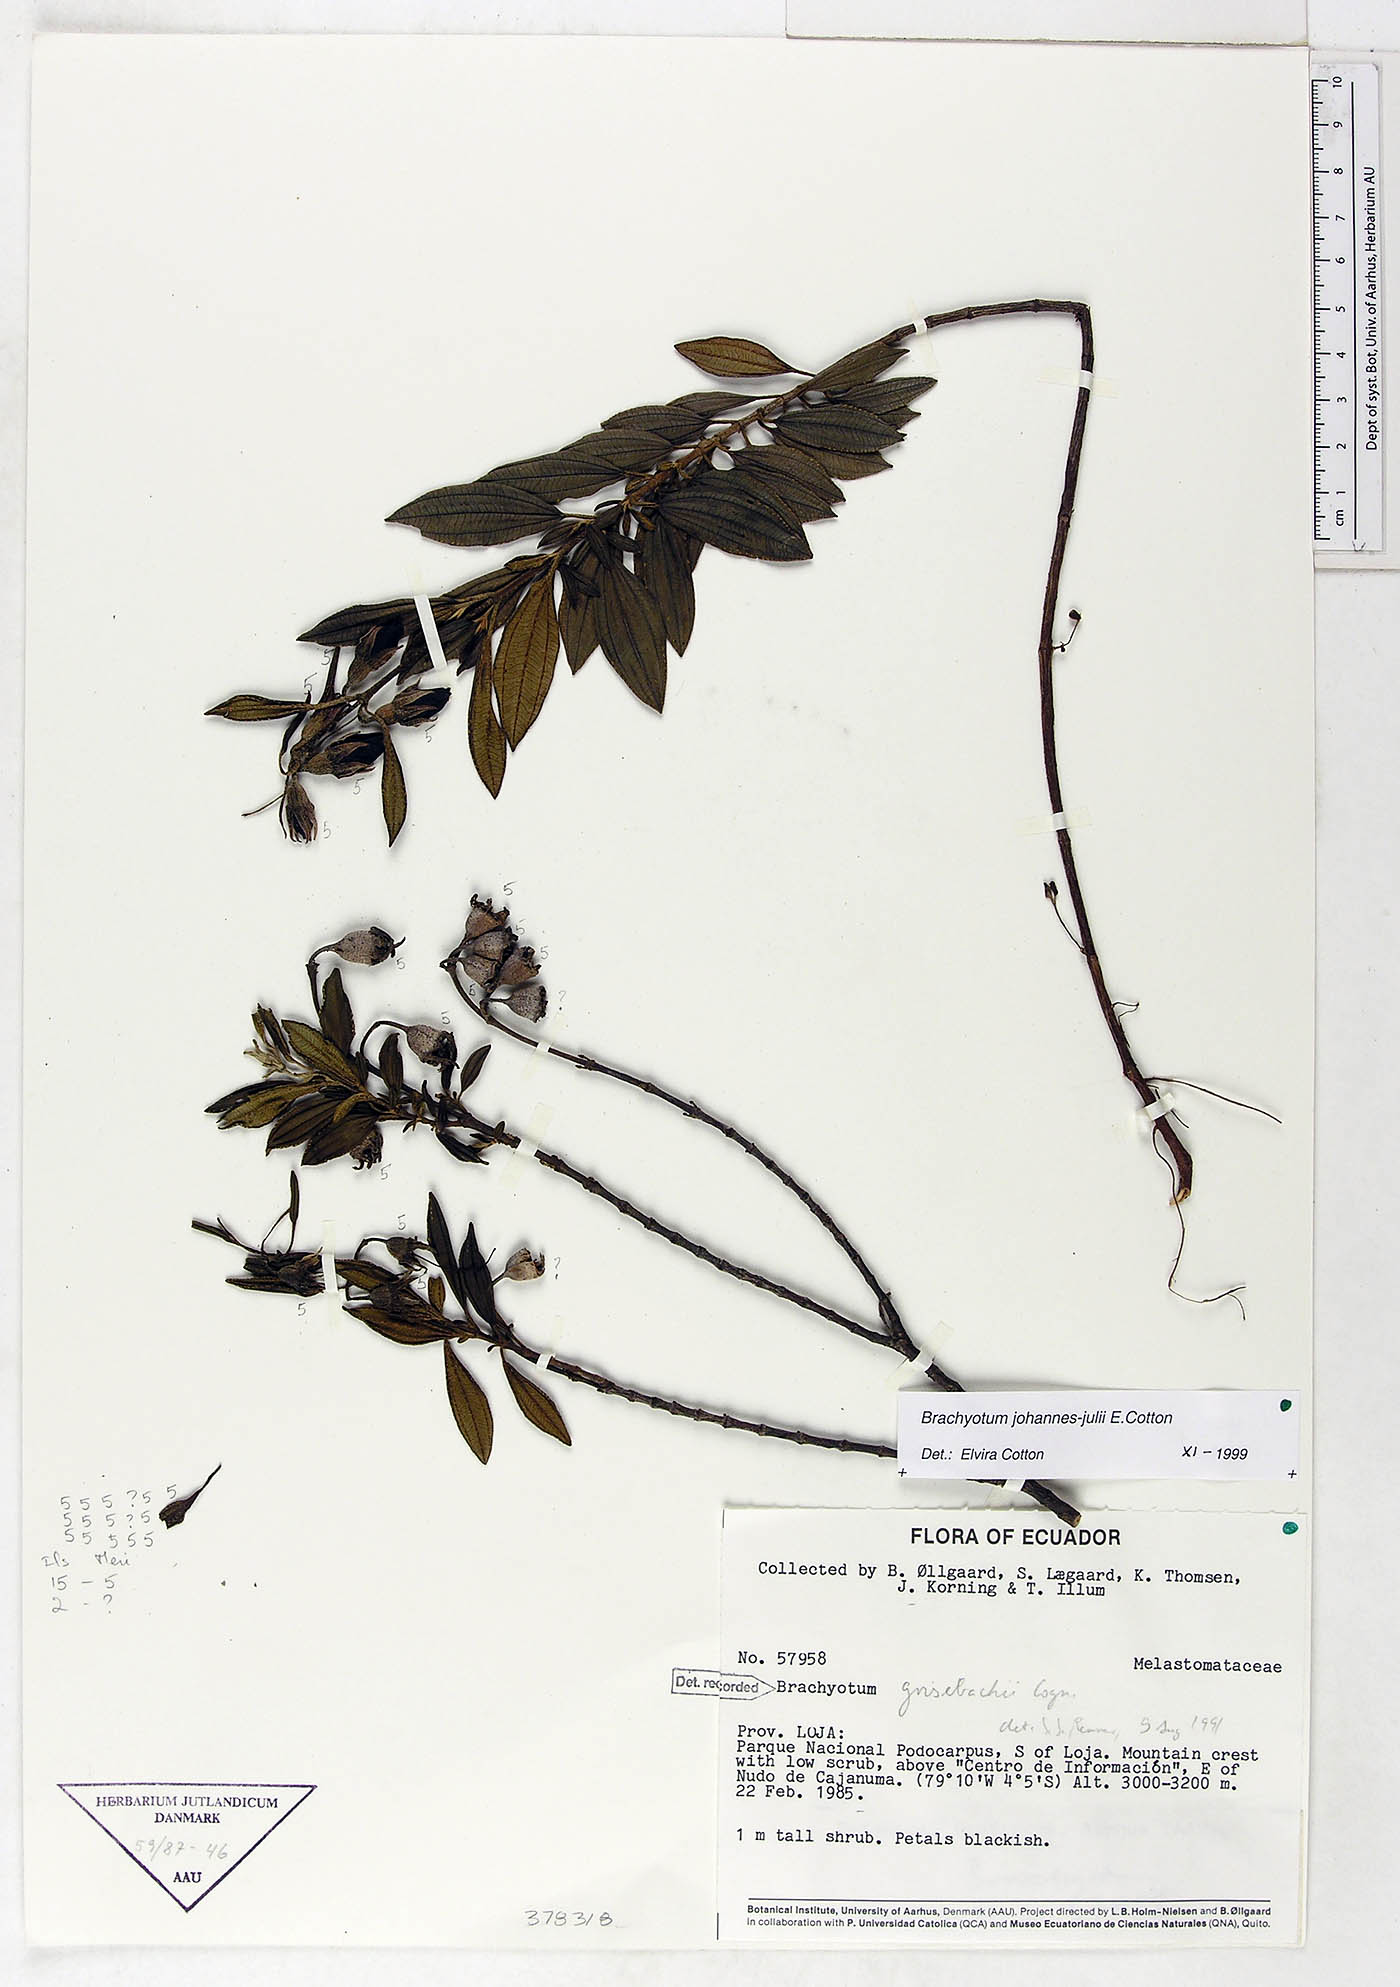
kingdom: Plantae
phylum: Tracheophyta
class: Magnoliopsida
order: Myrtales
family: Melastomataceae
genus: Brachyotum
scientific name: Brachyotum grisebachii
